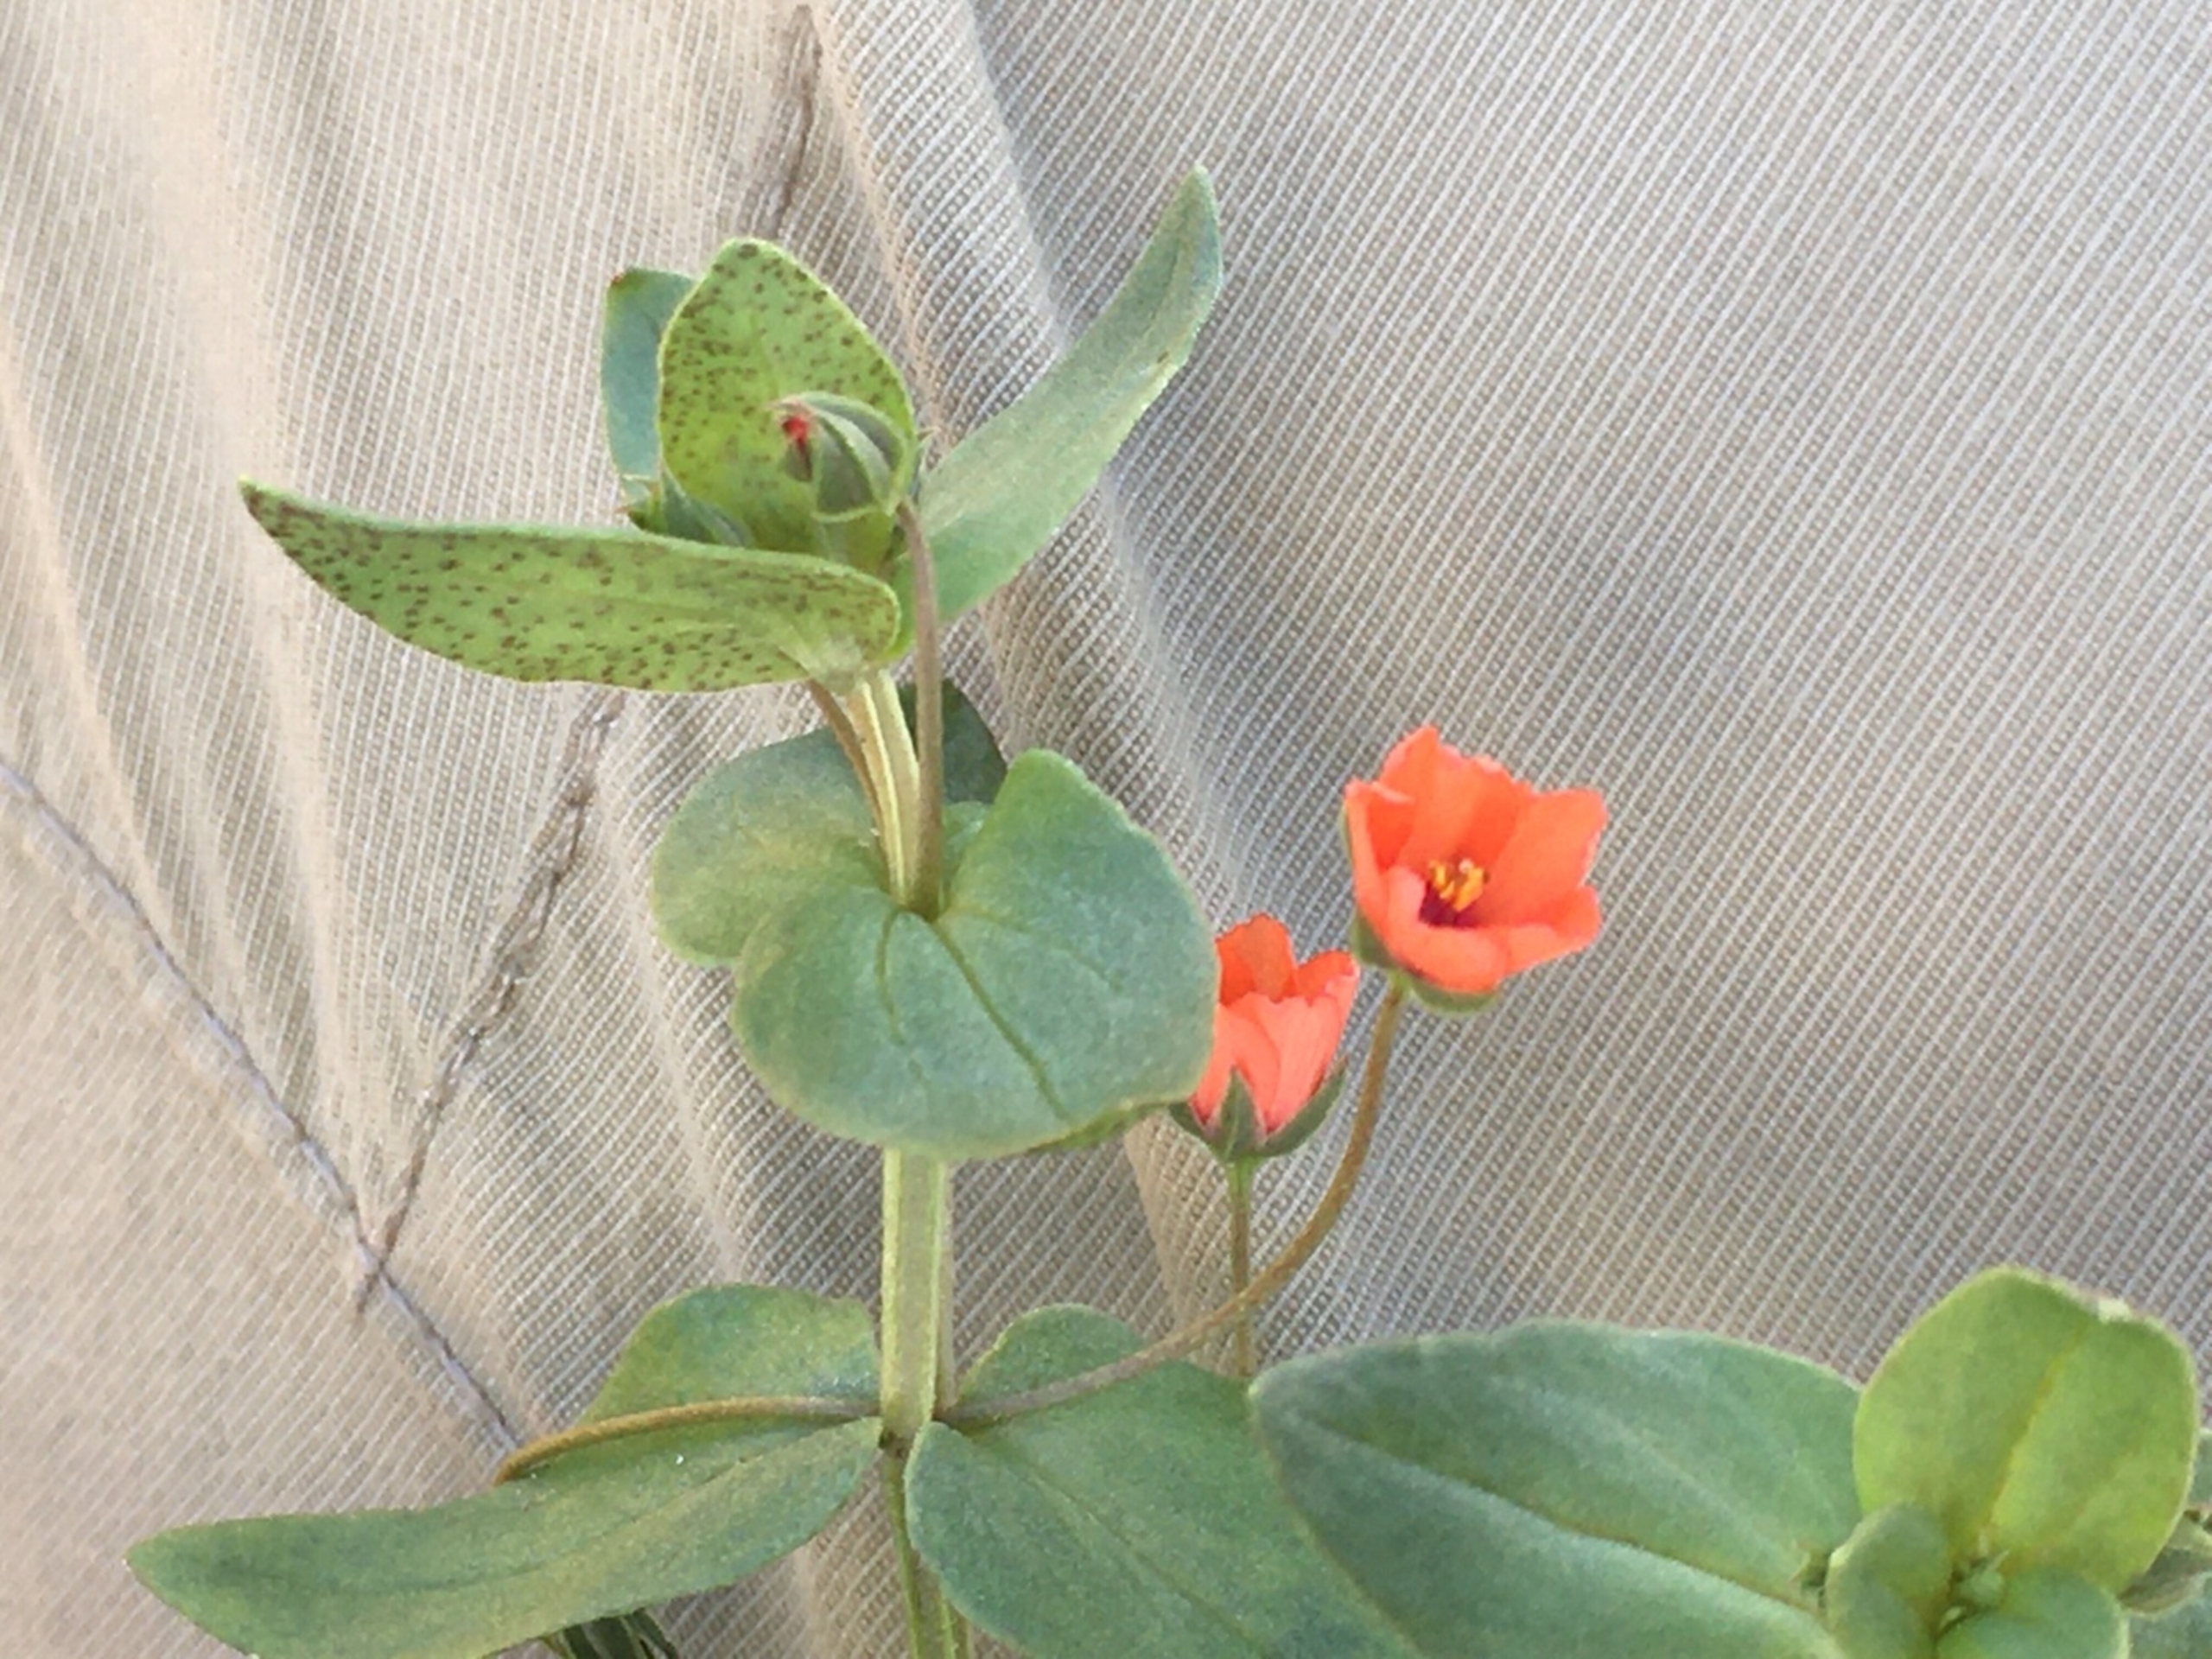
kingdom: Plantae
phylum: Tracheophyta
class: Magnoliopsida
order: Ericales
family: Primulaceae
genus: Lysimachia
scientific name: Lysimachia arvensis
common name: Rød arve
